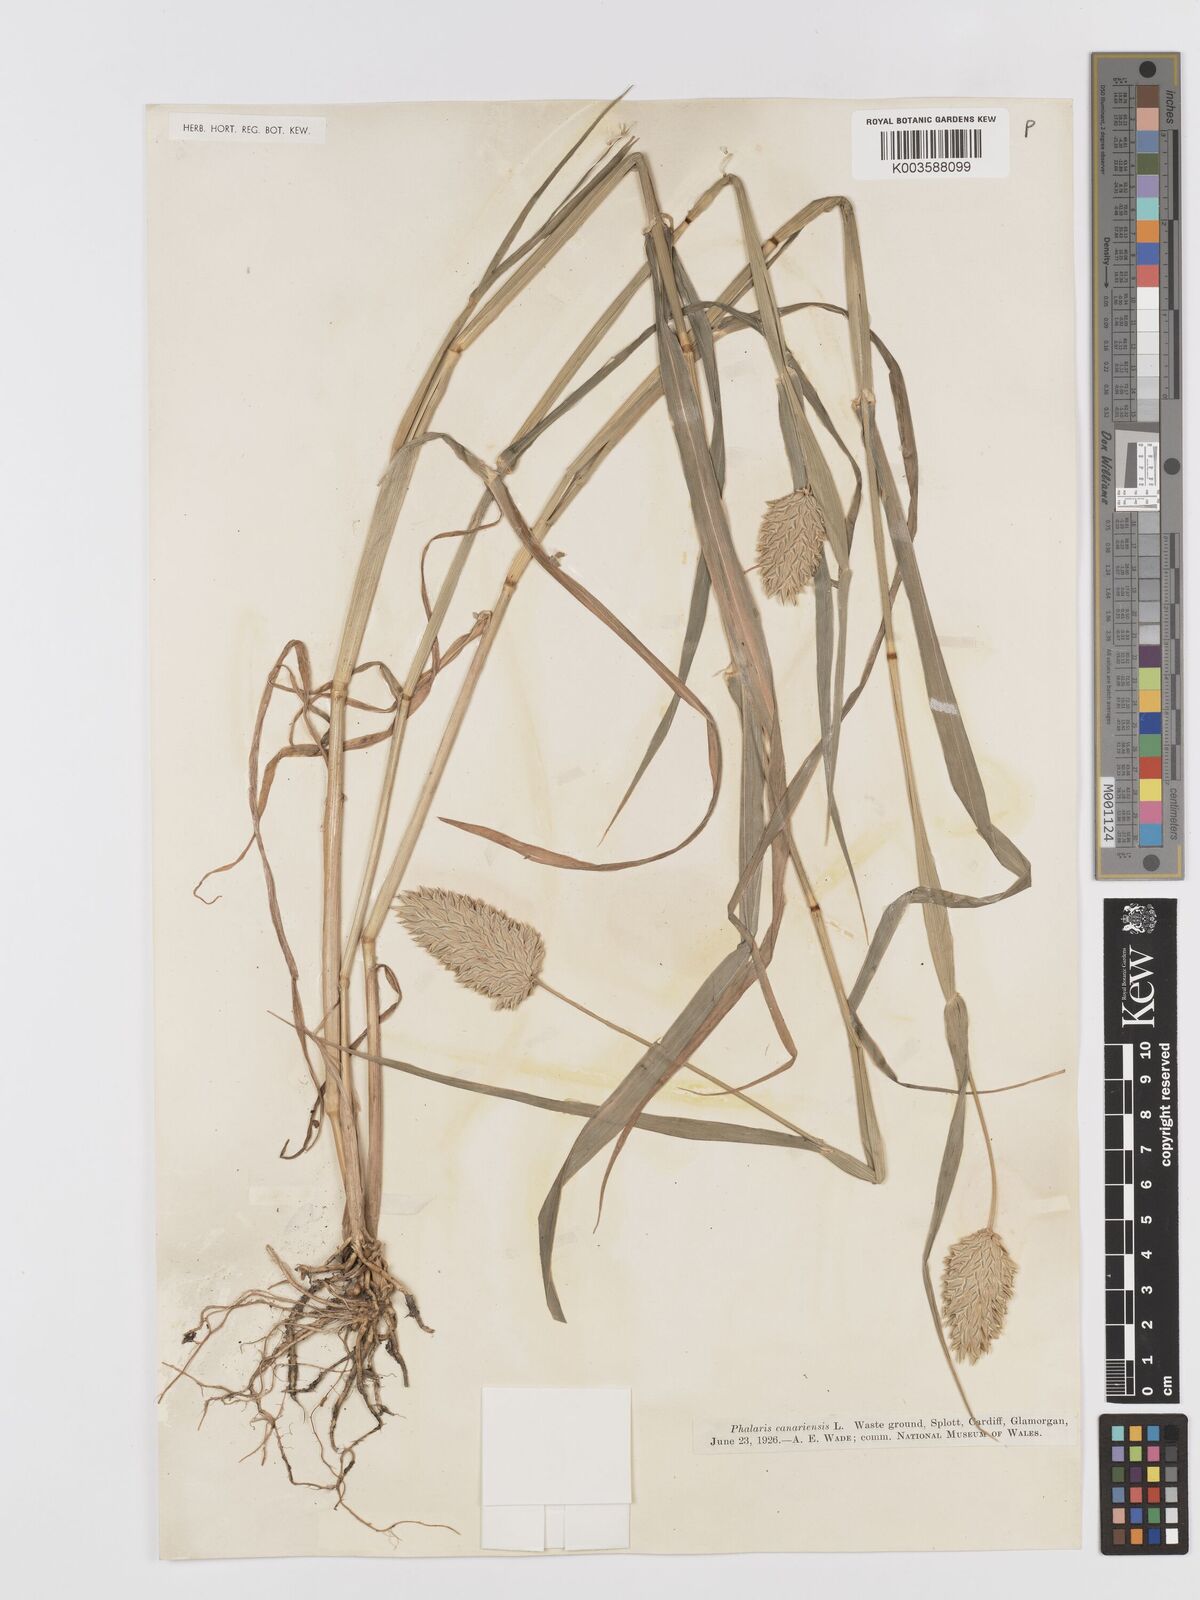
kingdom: Plantae
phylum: Tracheophyta
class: Liliopsida
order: Poales
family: Poaceae
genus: Phalaris
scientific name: Phalaris canariensis
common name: Annual canarygrass
